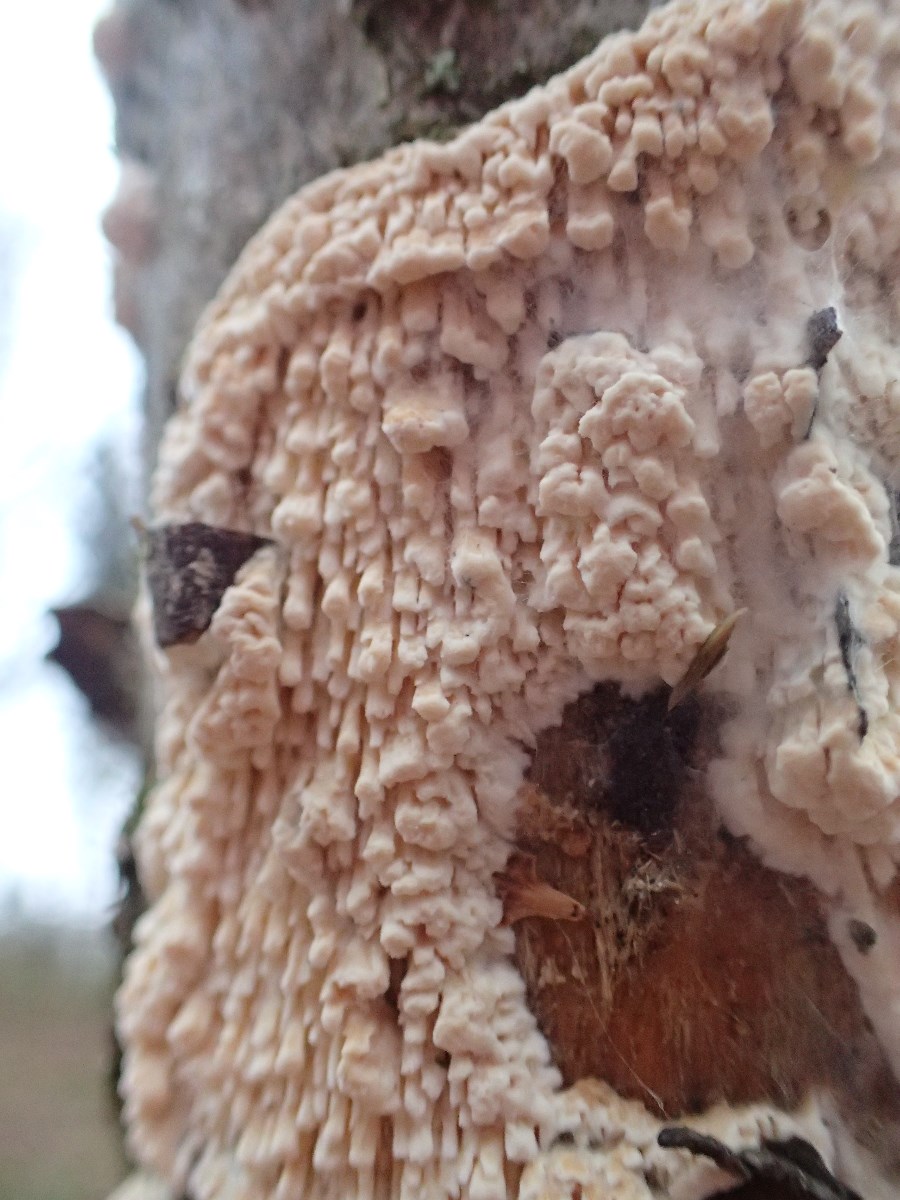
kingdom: Fungi
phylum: Basidiomycota
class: Agaricomycetes
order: Hymenochaetales
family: Schizoporaceae
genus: Xylodon
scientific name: Xylodon radula
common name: grovtandet kalkskind
